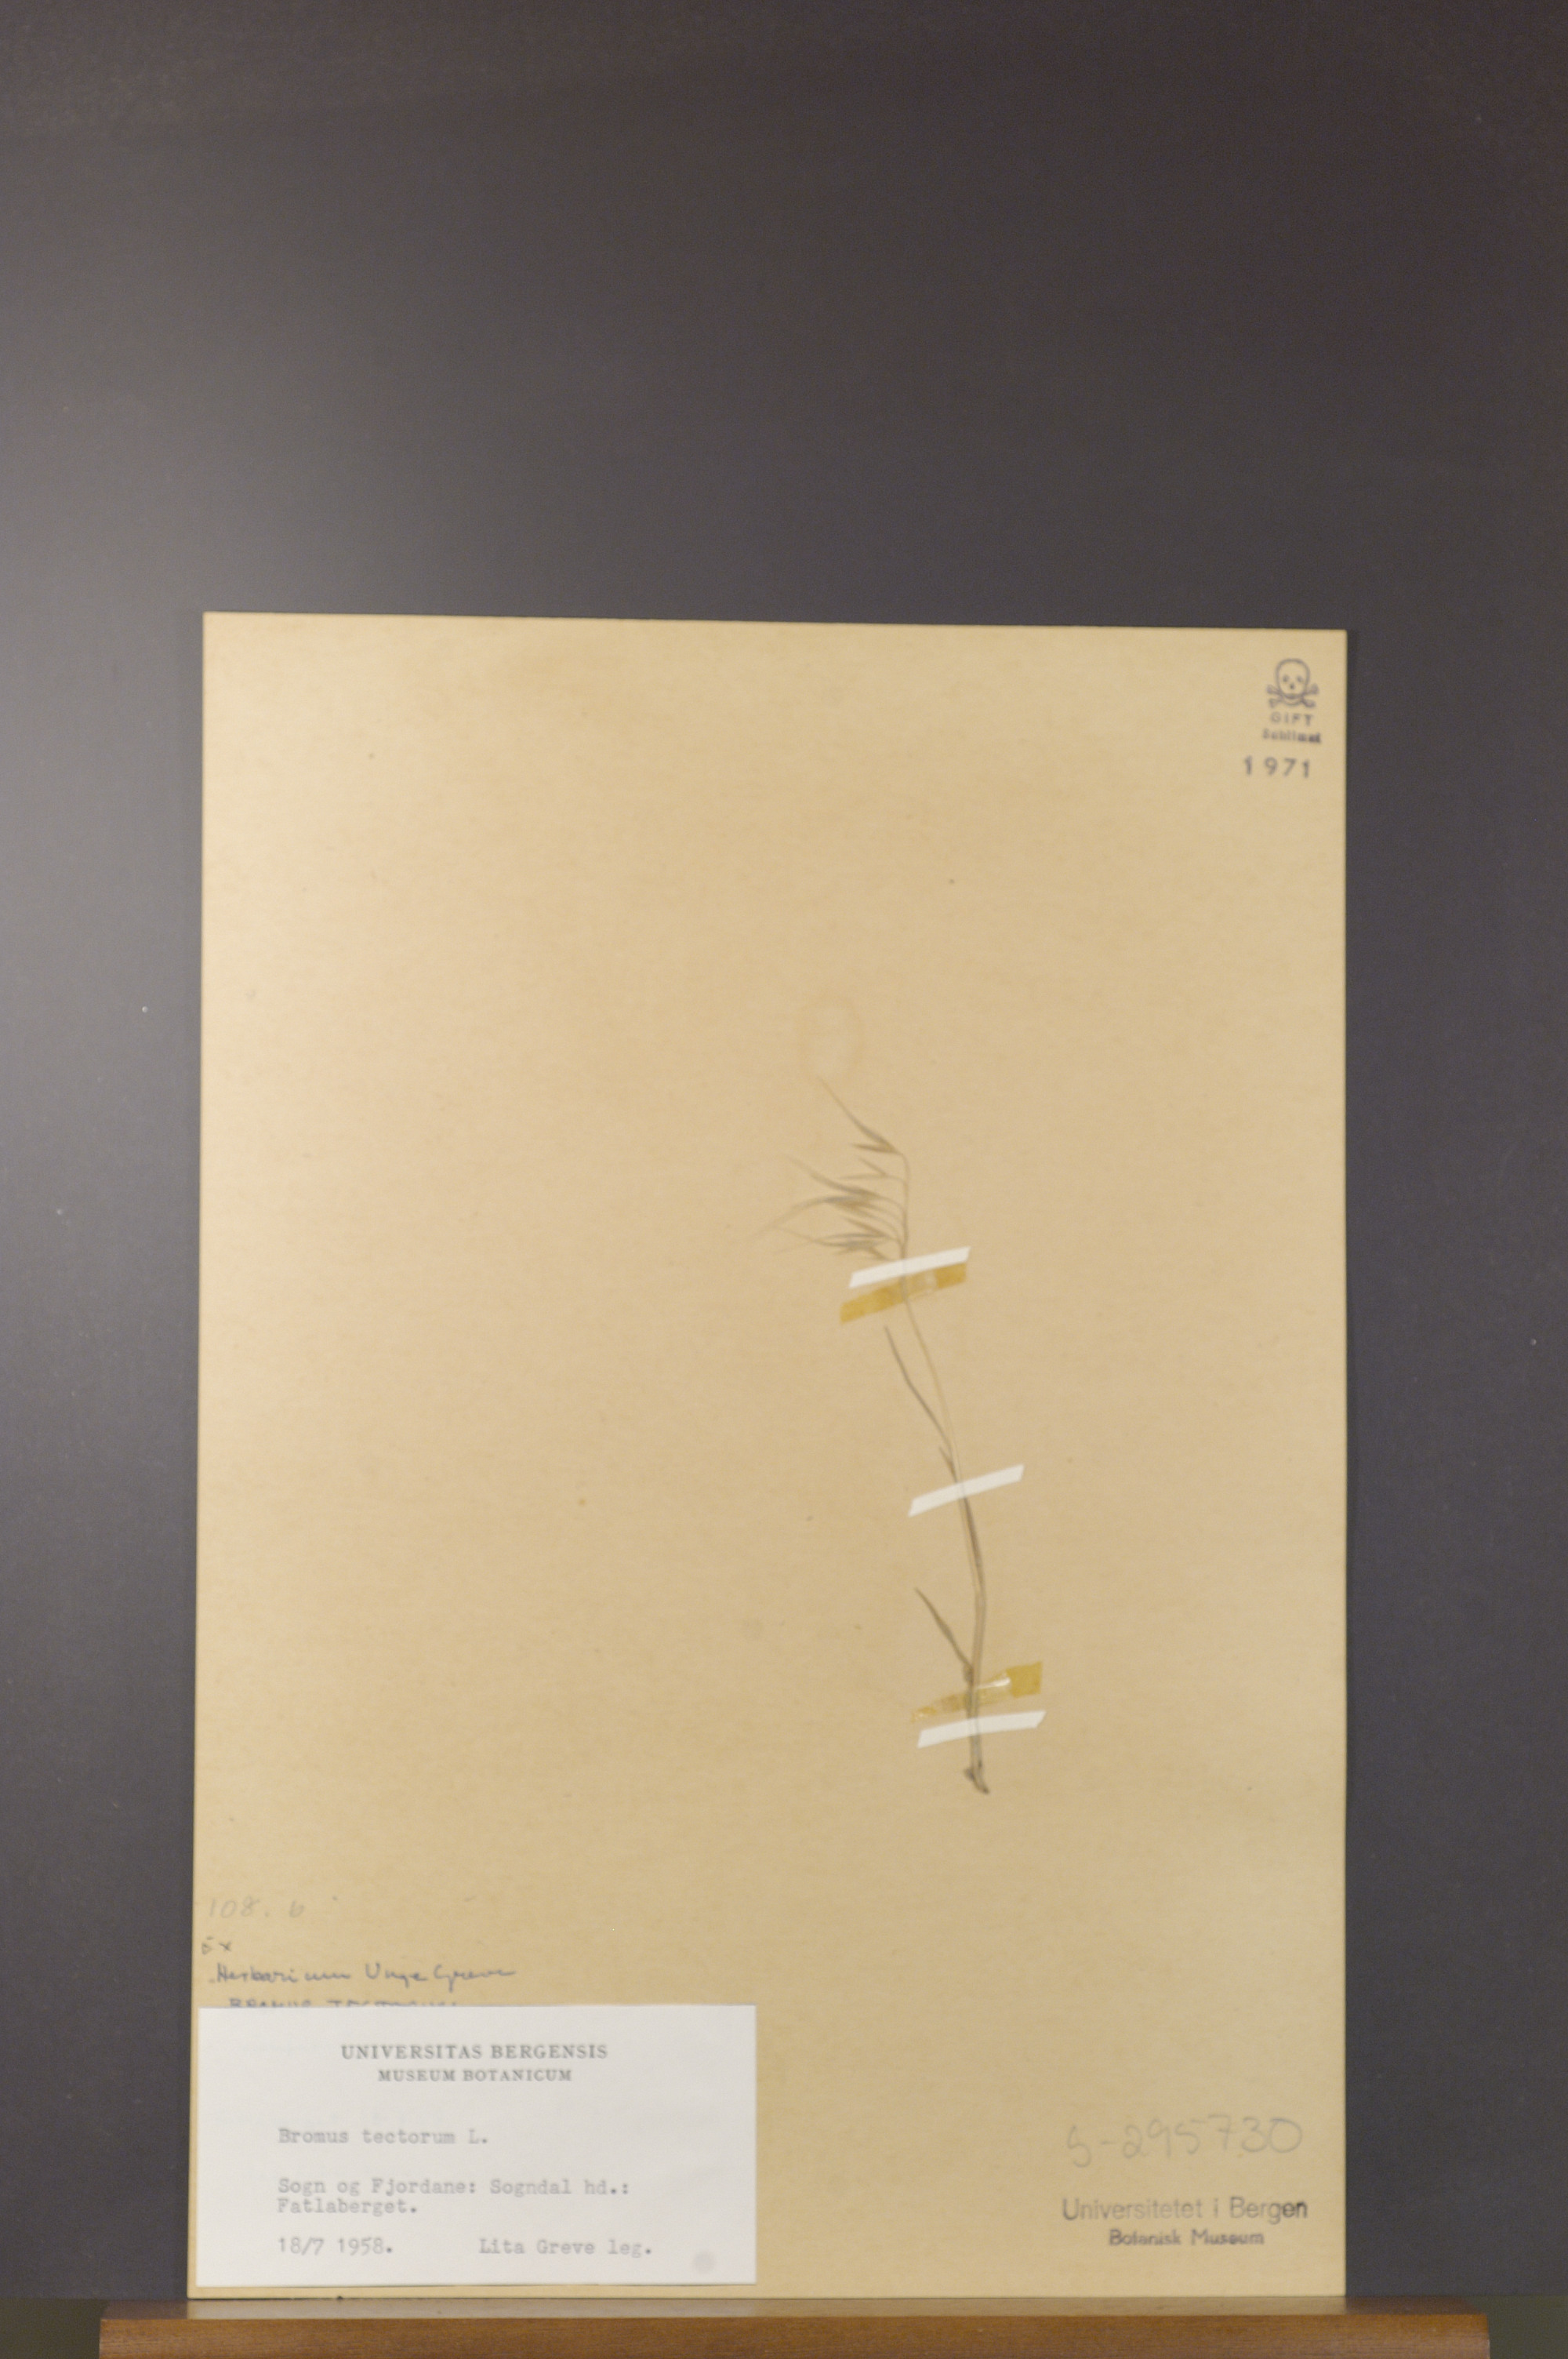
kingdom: Plantae
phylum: Tracheophyta
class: Liliopsida
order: Poales
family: Poaceae
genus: Bromus
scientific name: Bromus tectorum
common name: Cheatgrass
